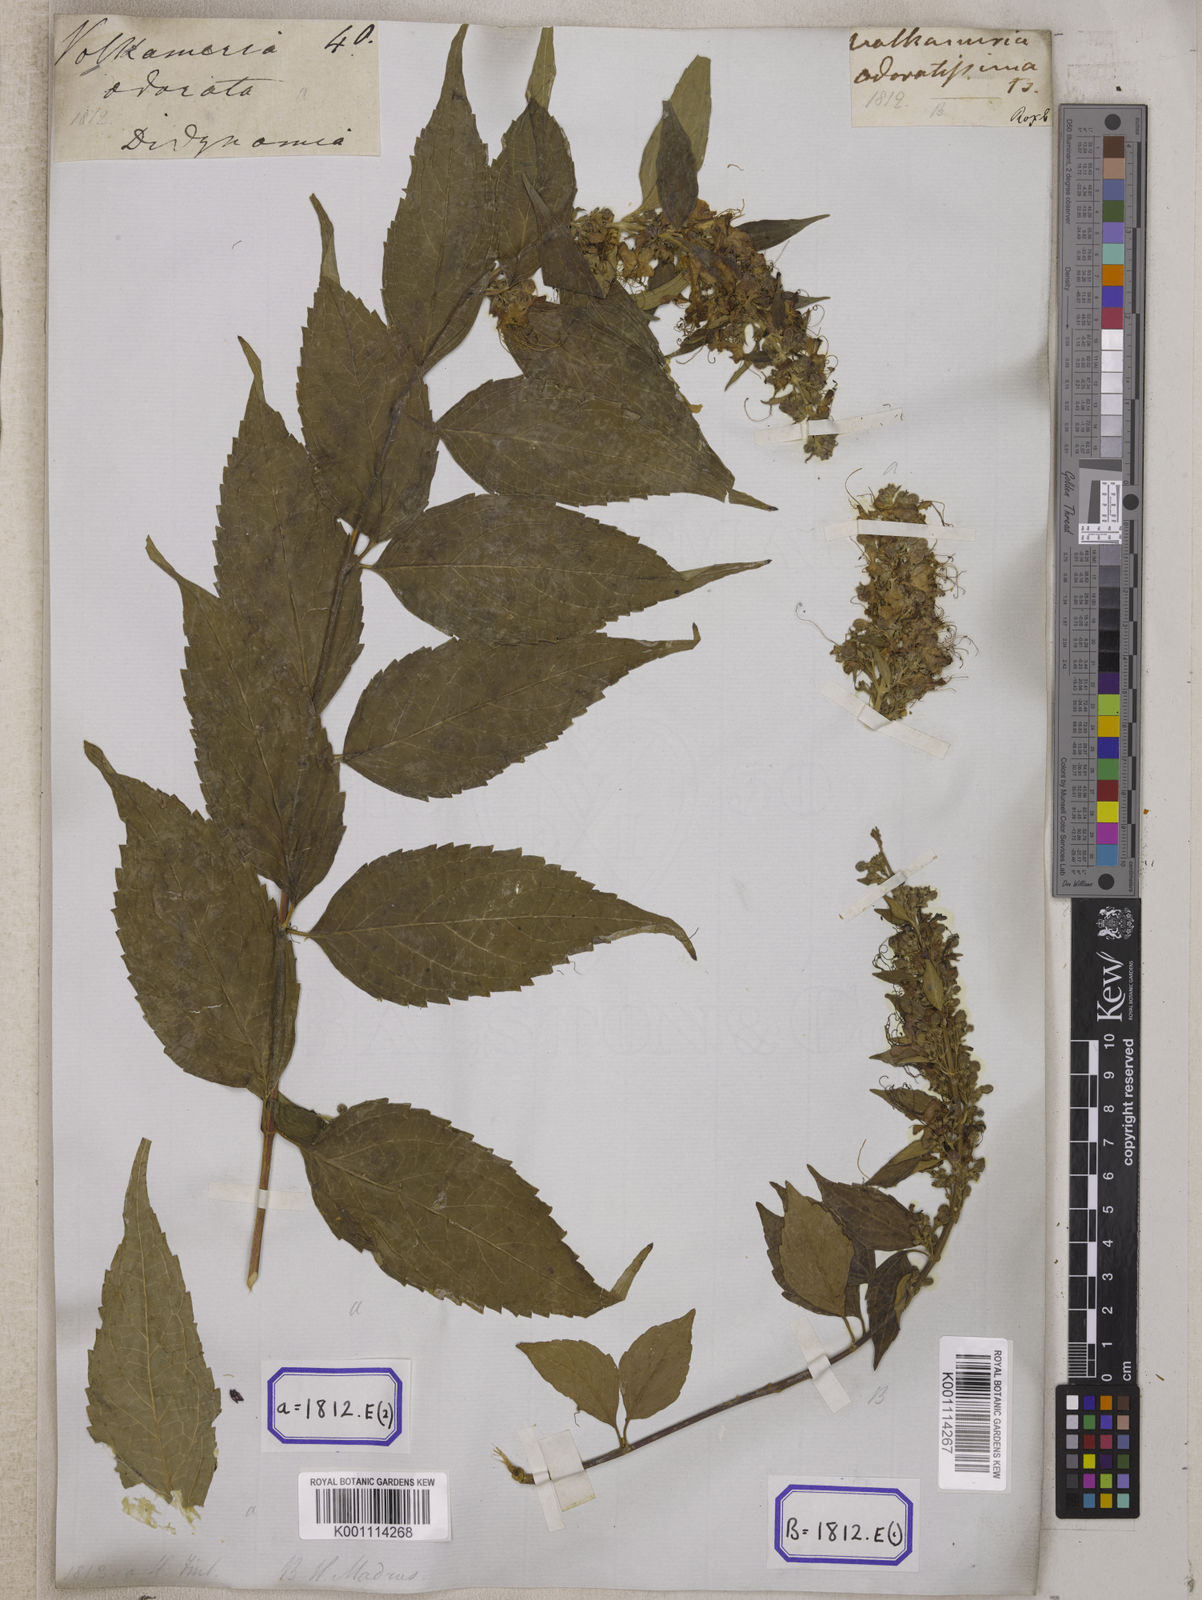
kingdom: Plantae
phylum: Tracheophyta
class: Magnoliopsida
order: Lamiales
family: Lamiaceae
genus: Clerodendrum
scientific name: Clerodendrum
